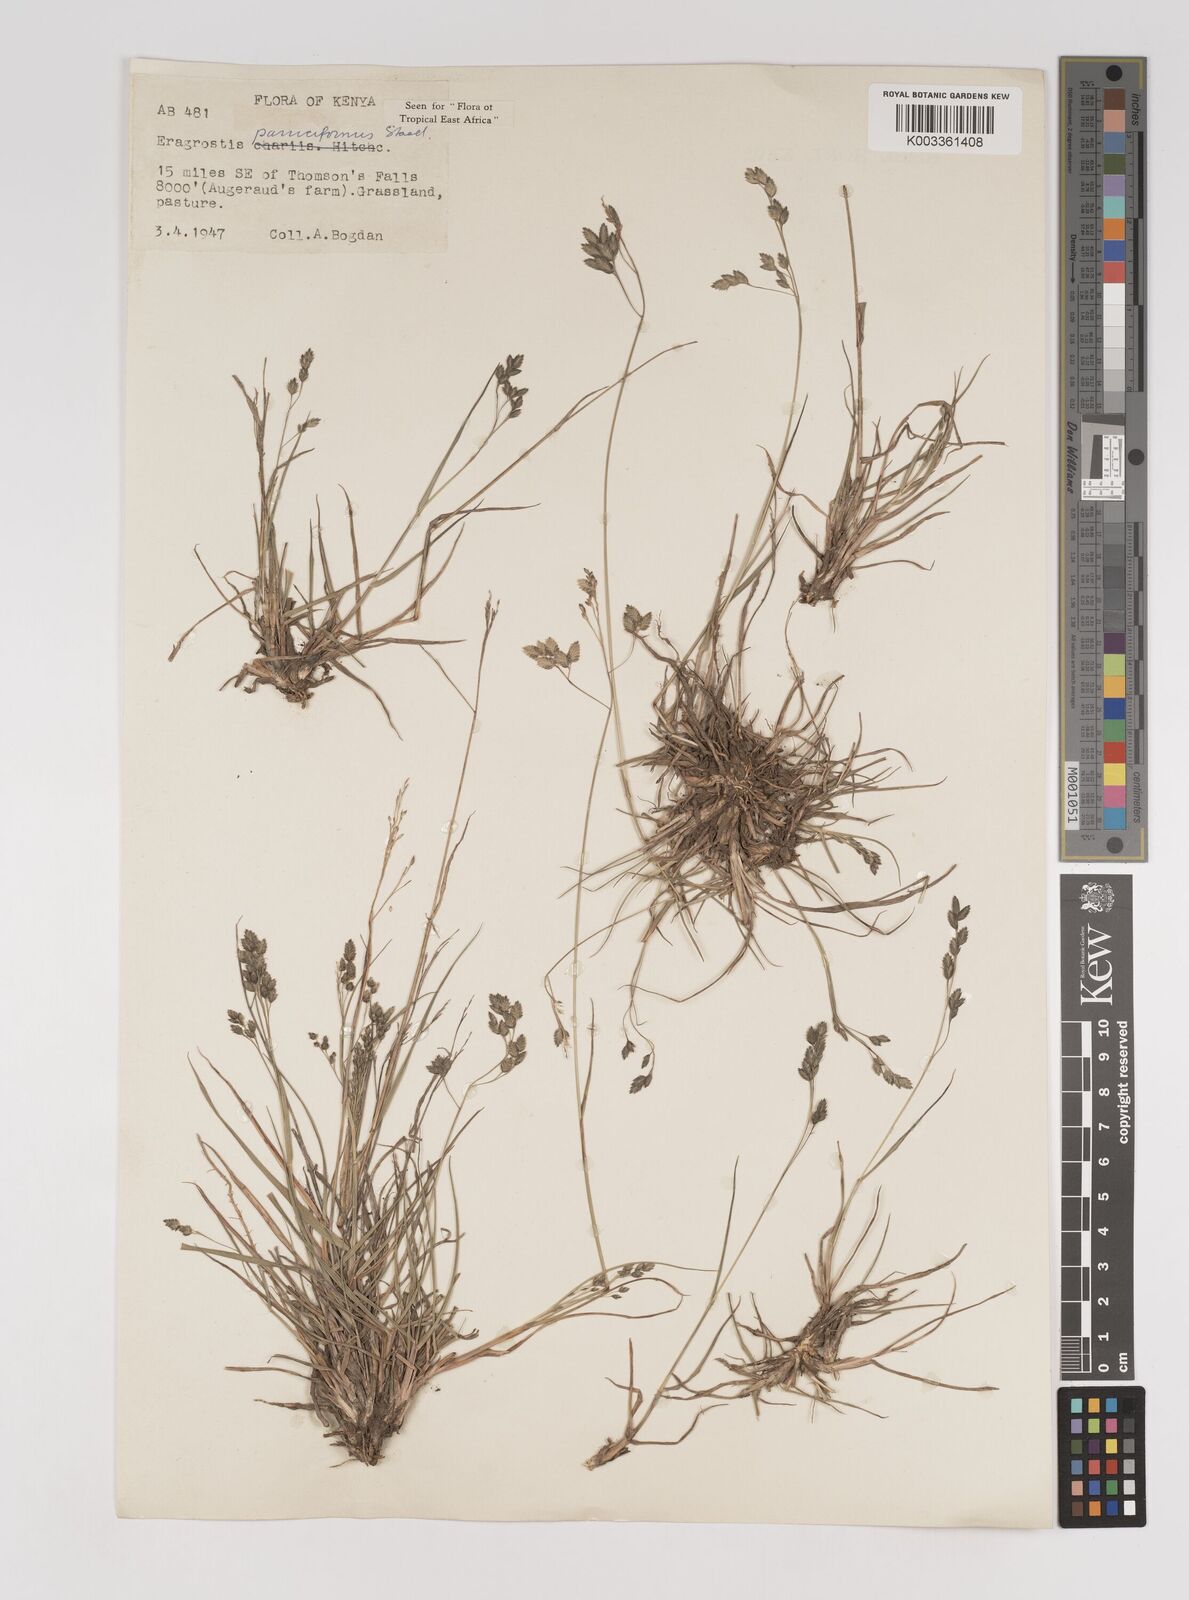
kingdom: Plantae
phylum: Tracheophyta
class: Liliopsida
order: Poales
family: Poaceae
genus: Eragrostis
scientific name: Eragrostis paniciformis
